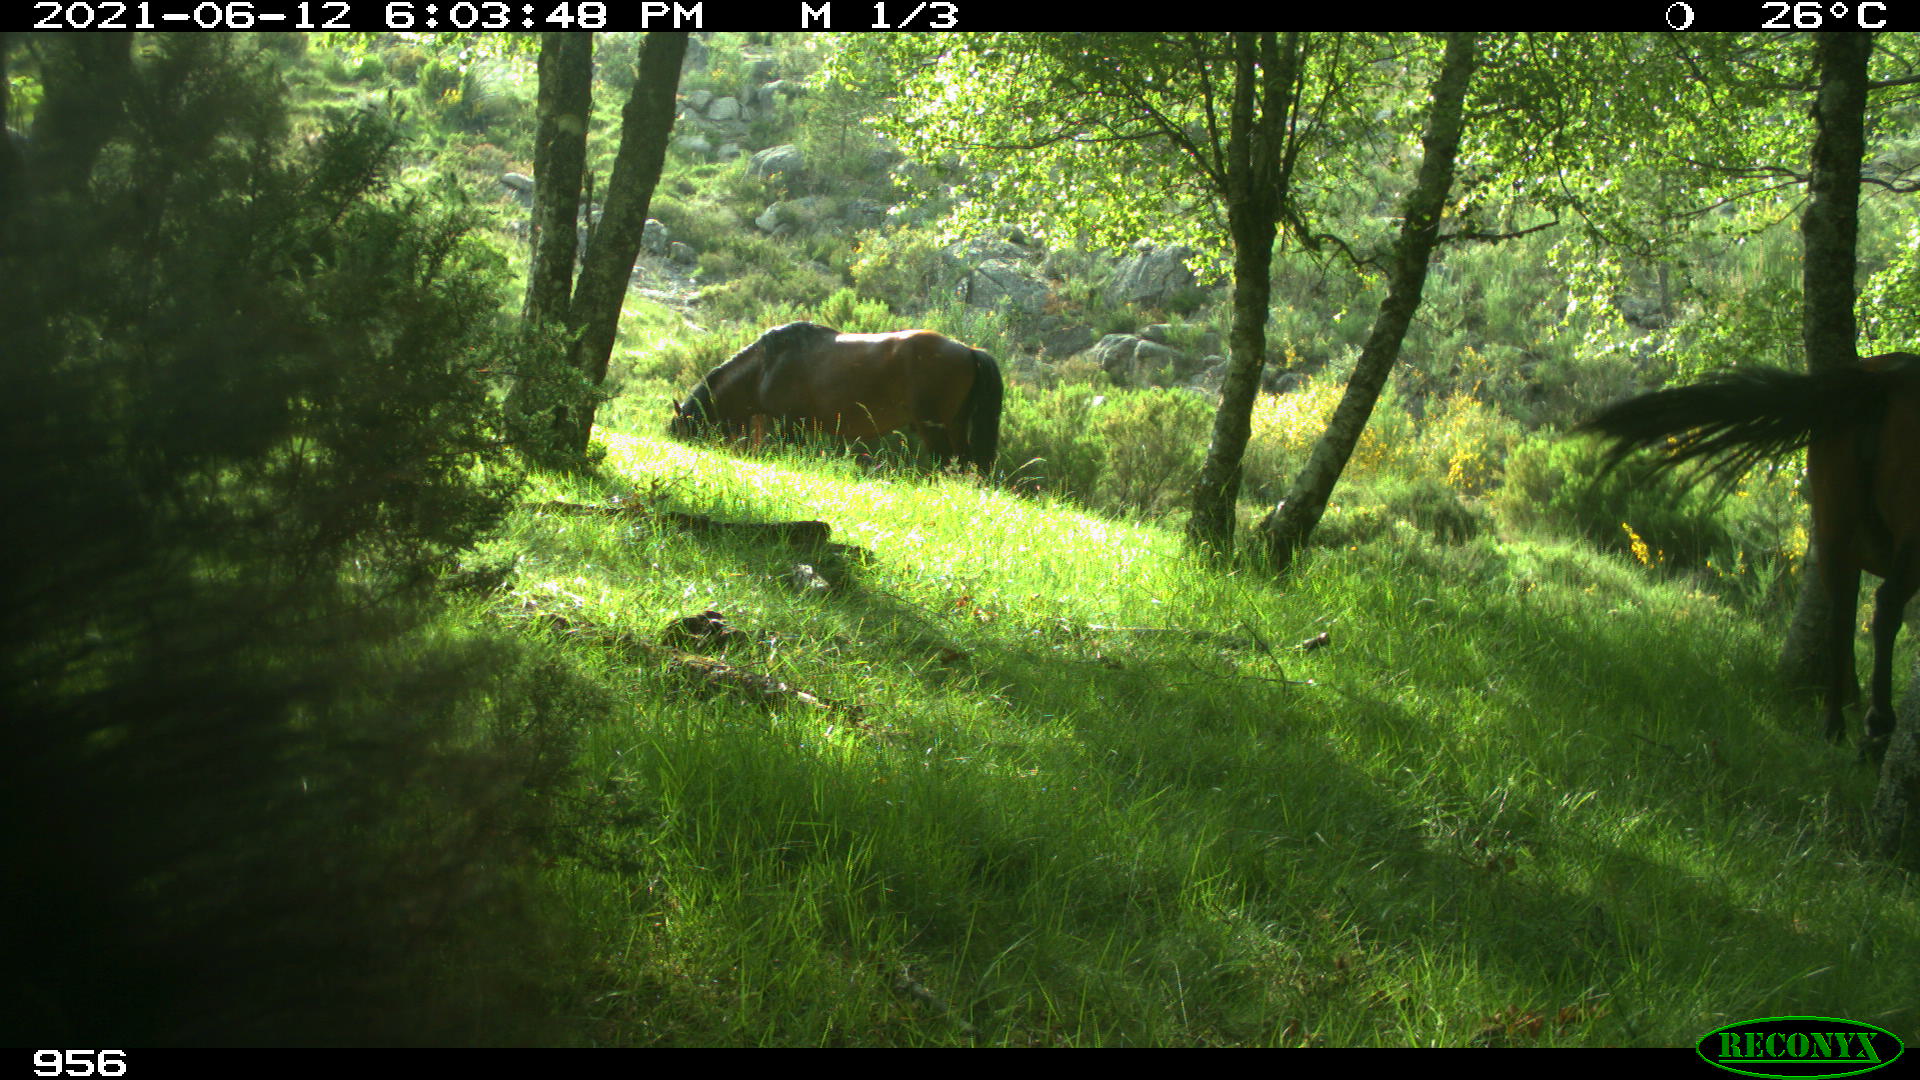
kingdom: Animalia
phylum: Chordata
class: Mammalia
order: Perissodactyla
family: Equidae
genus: Equus
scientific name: Equus caballus
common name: Horse
